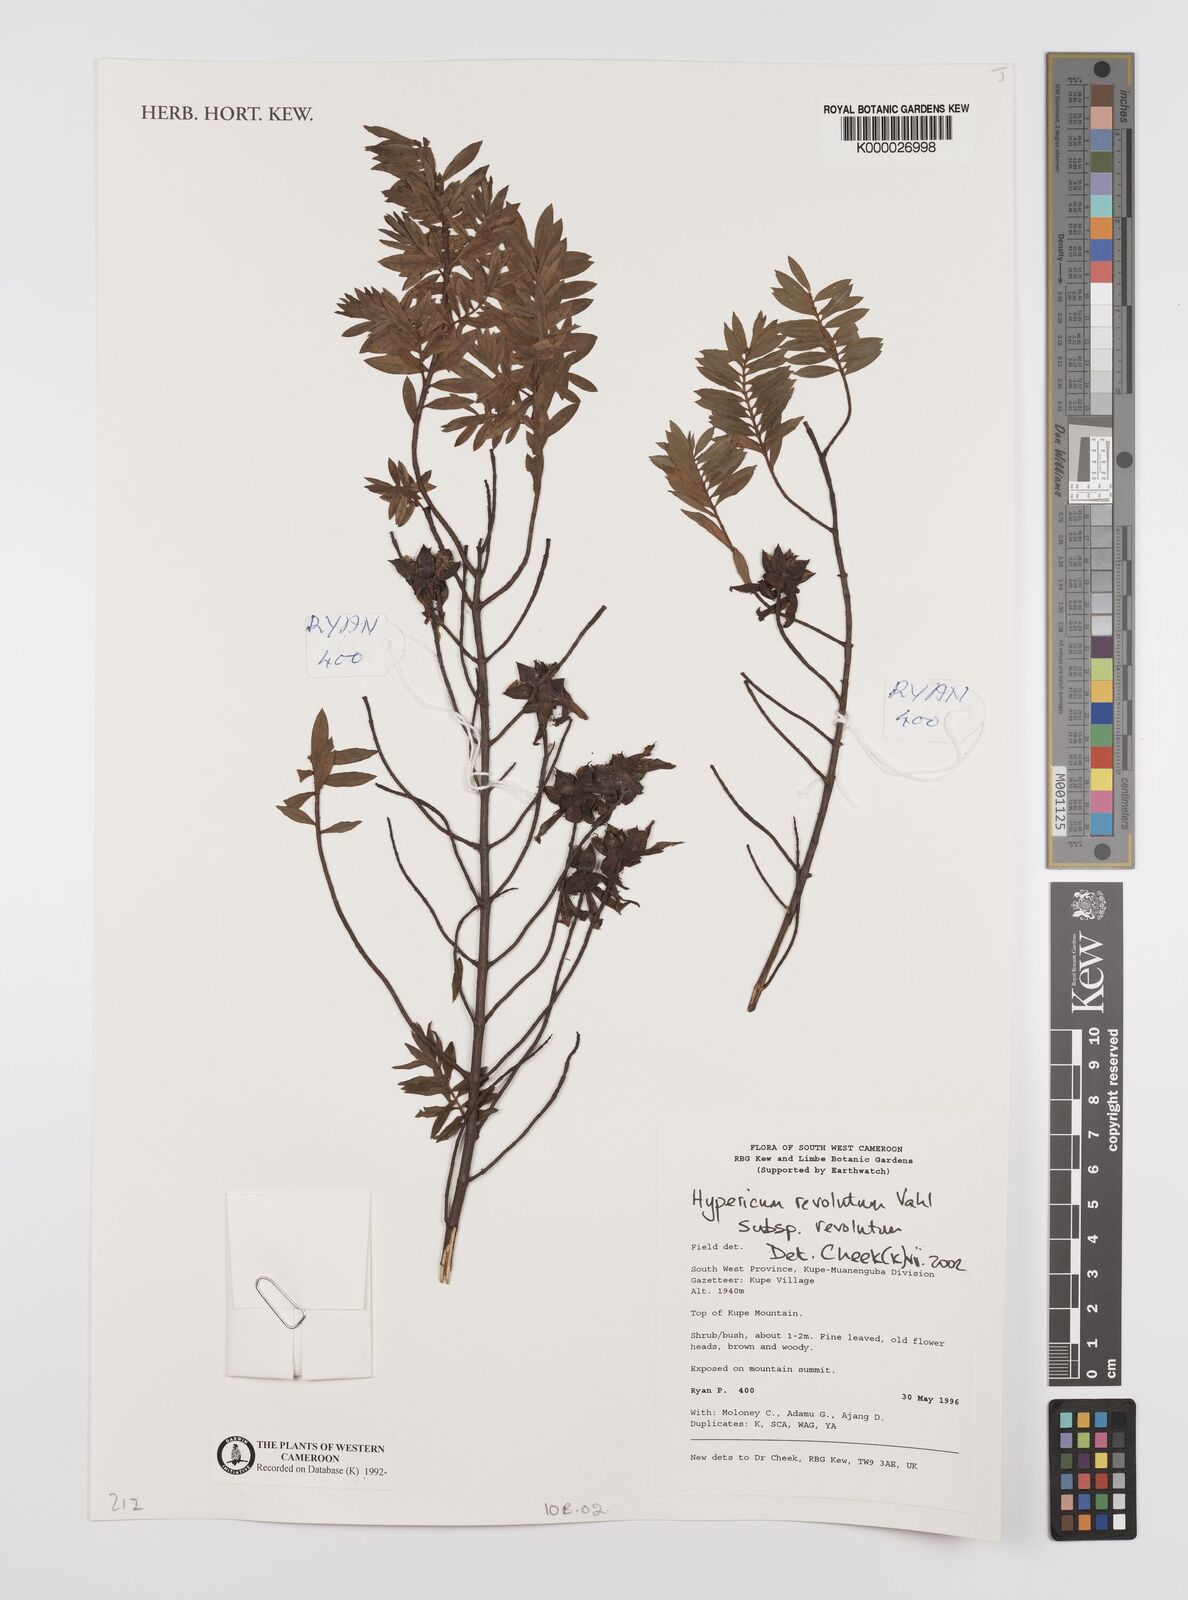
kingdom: Plantae
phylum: Tracheophyta
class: Magnoliopsida
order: Malpighiales
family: Hypericaceae
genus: Hypericum
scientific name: Hypericum revolutum
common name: Curry bush
